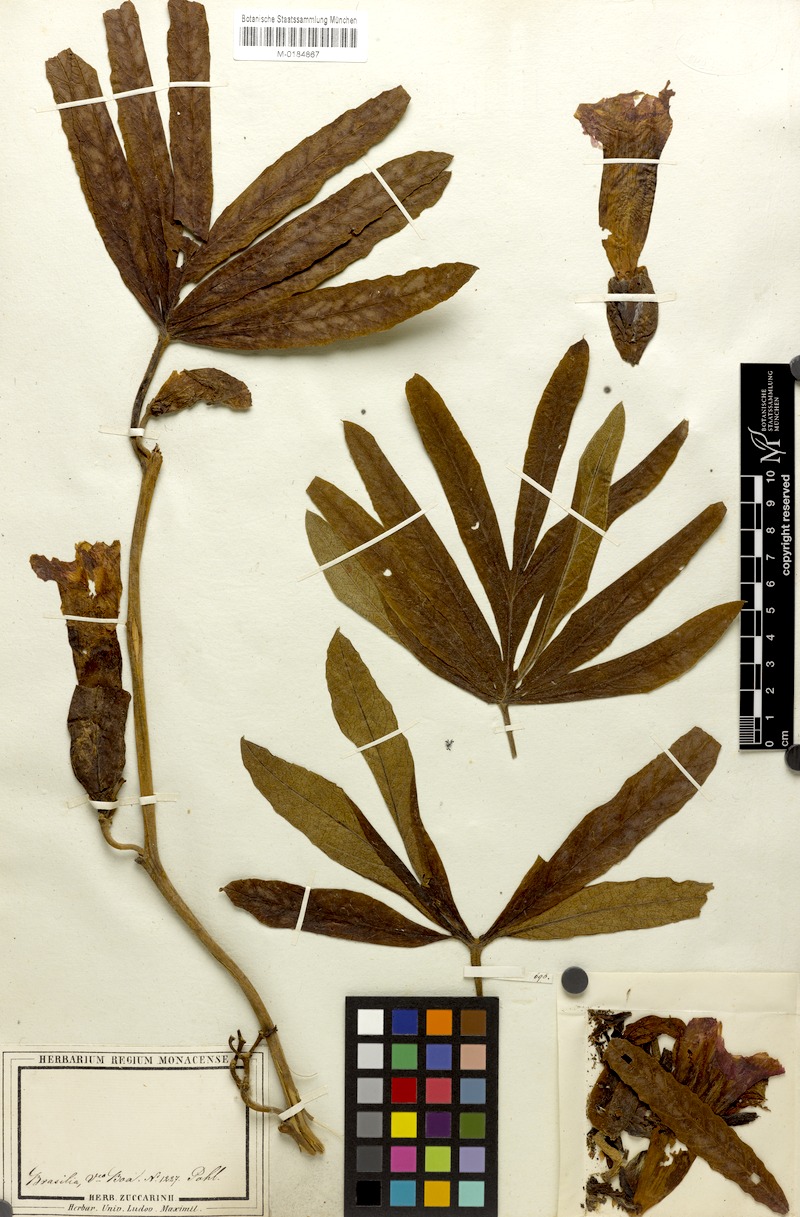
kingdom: Plantae
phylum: Tracheophyta
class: Magnoliopsida
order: Solanales
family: Convolvulaceae
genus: Ipomoea
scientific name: Ipomoea gigantea
